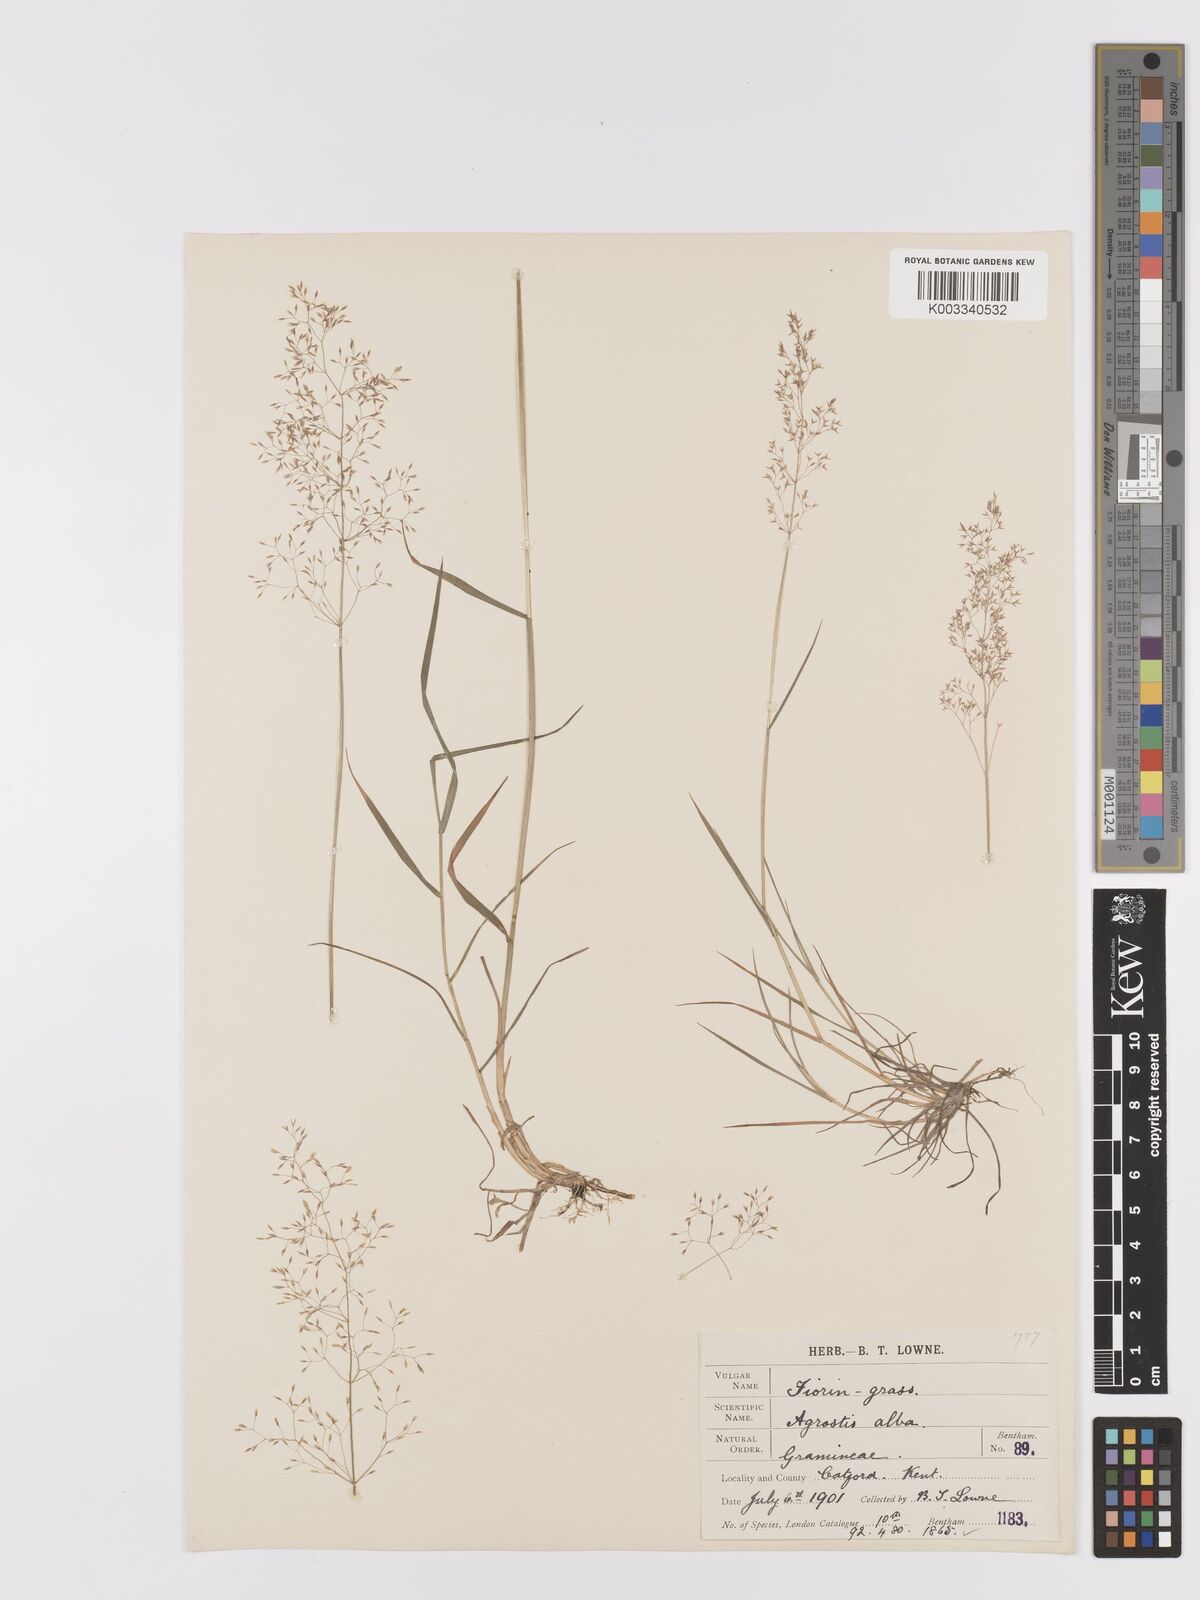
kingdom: Plantae
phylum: Tracheophyta
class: Liliopsida
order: Poales
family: Poaceae
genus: Agrostis
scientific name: Agrostis capillaris
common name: Colonial bentgrass
